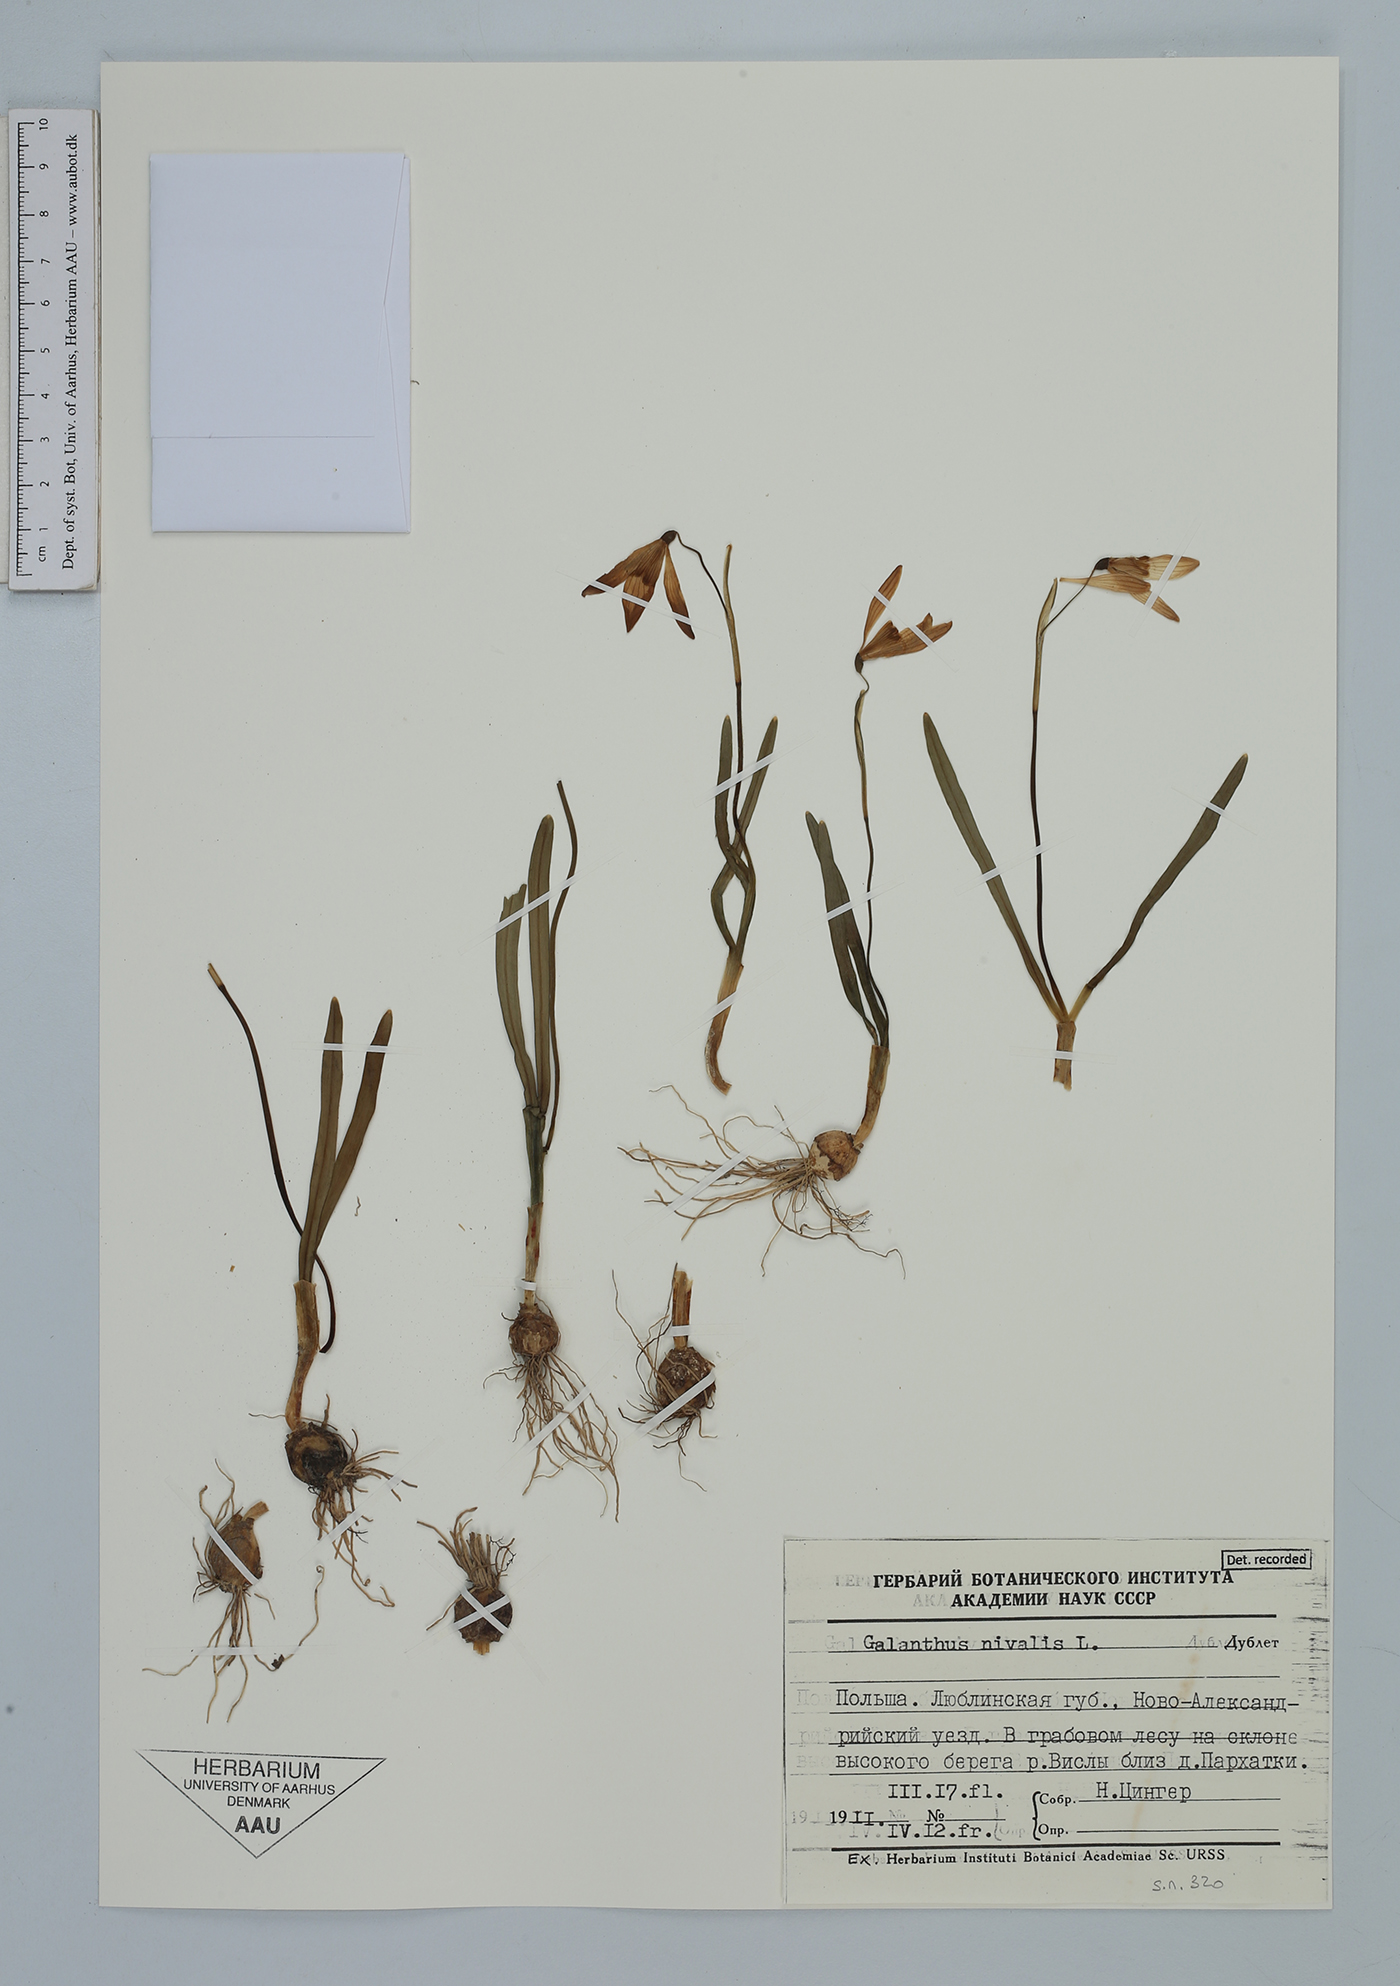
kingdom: Plantae
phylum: Tracheophyta
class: Liliopsida
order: Asparagales
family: Amaryllidaceae
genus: Galanthus
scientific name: Galanthus nivalis
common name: Snowdrop
